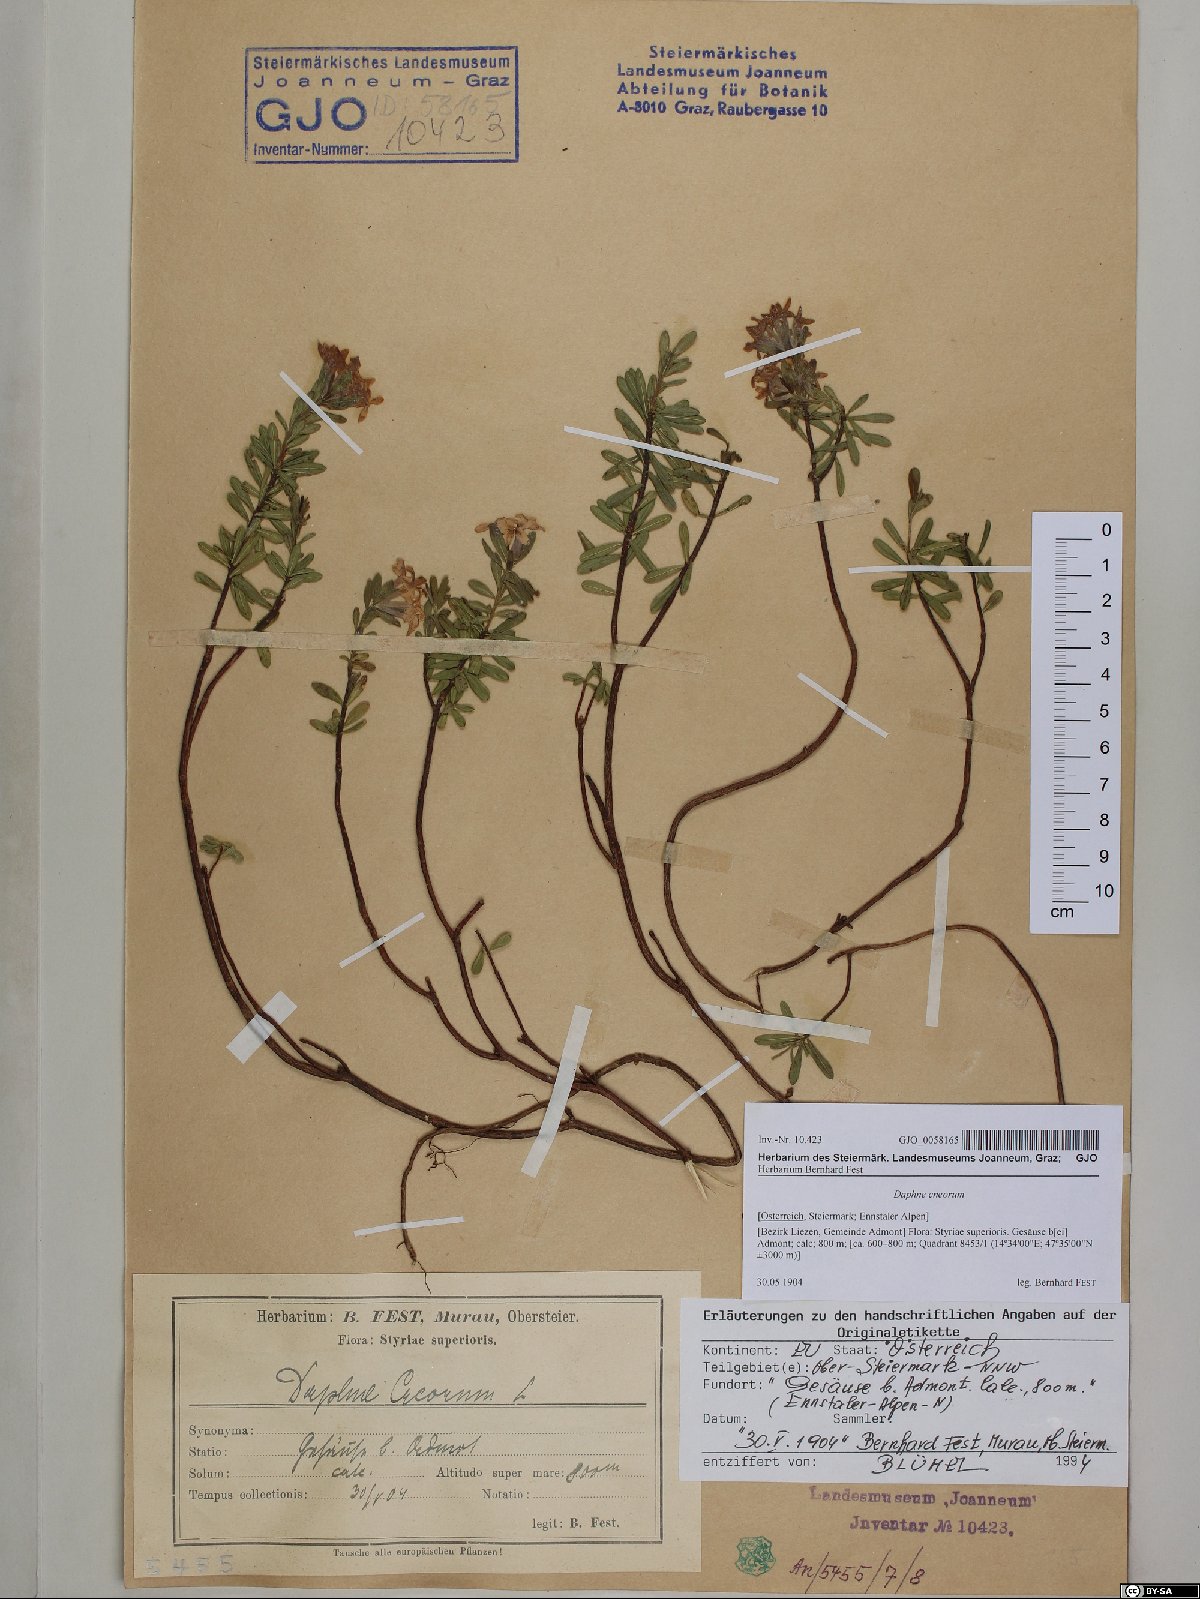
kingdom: Plantae
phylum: Tracheophyta
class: Magnoliopsida
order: Malvales
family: Thymelaeaceae
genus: Daphne
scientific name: Daphne cneorum
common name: Garland-flower
